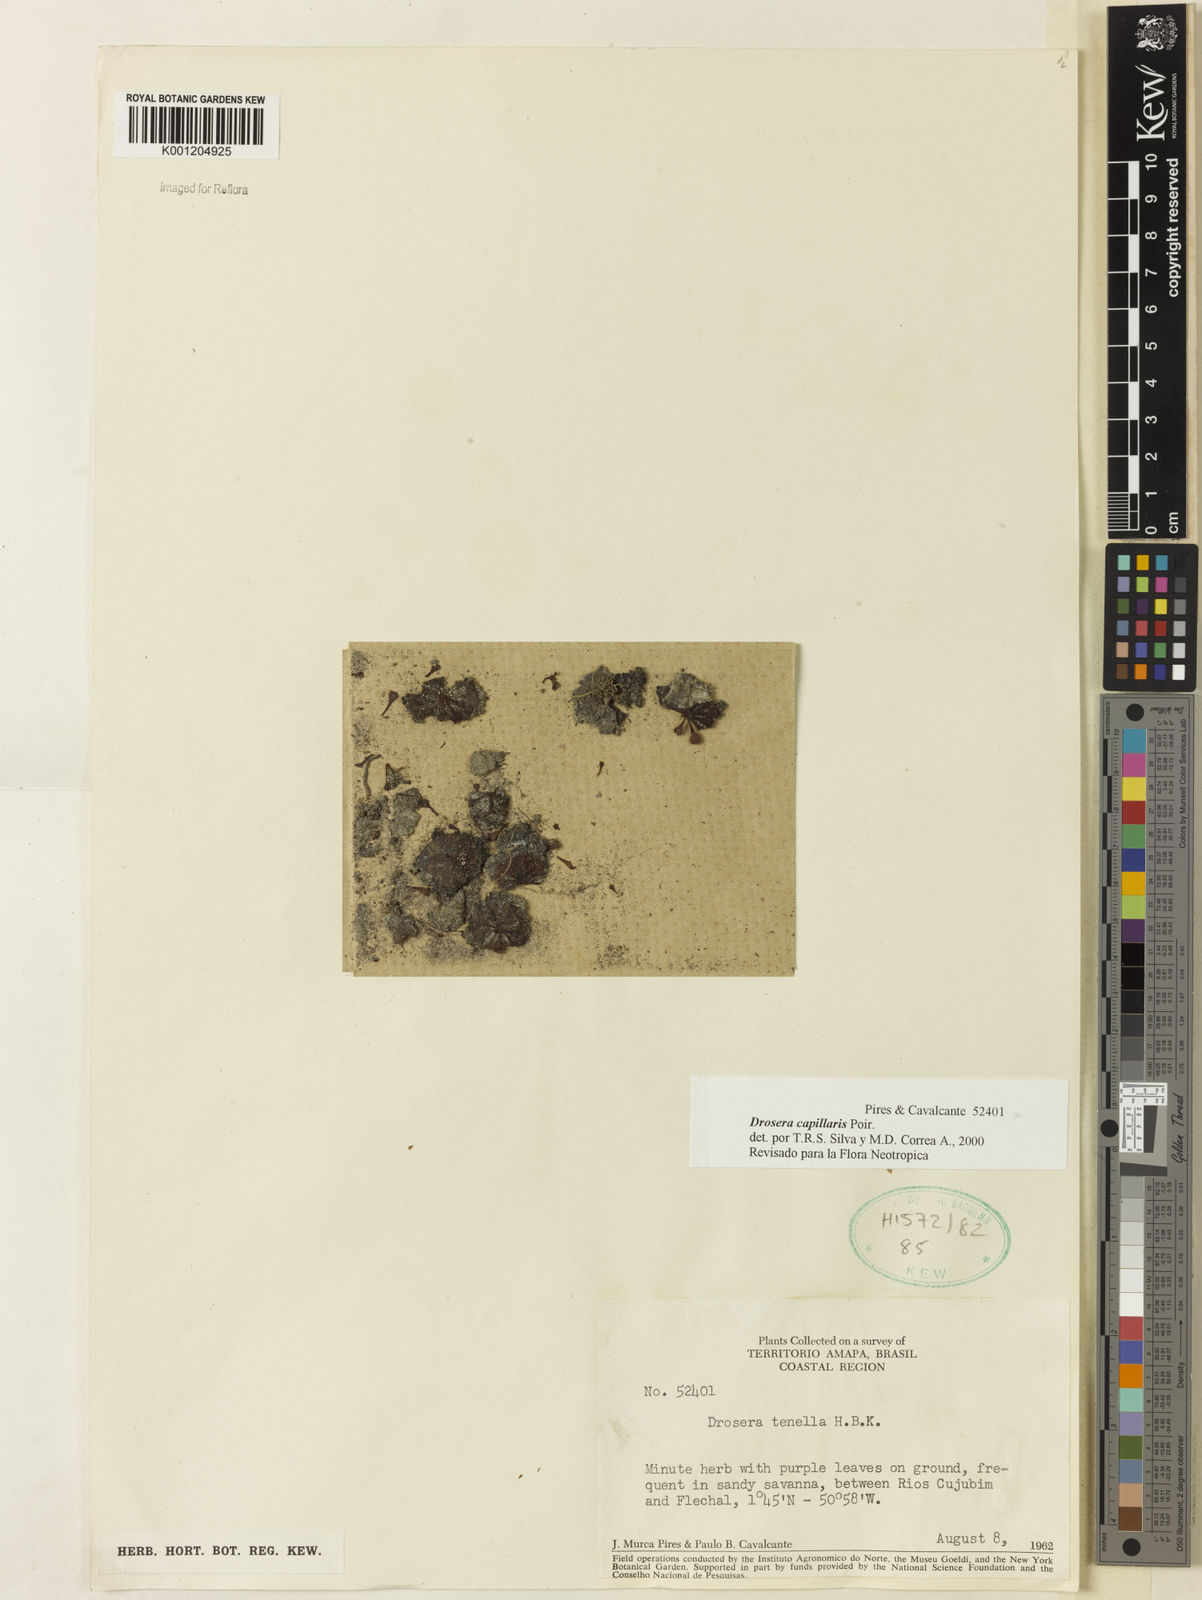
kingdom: Plantae
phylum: Tracheophyta
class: Magnoliopsida
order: Caryophyllales
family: Droseraceae
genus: Drosera
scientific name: Drosera capillaris
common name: Pink sundew
